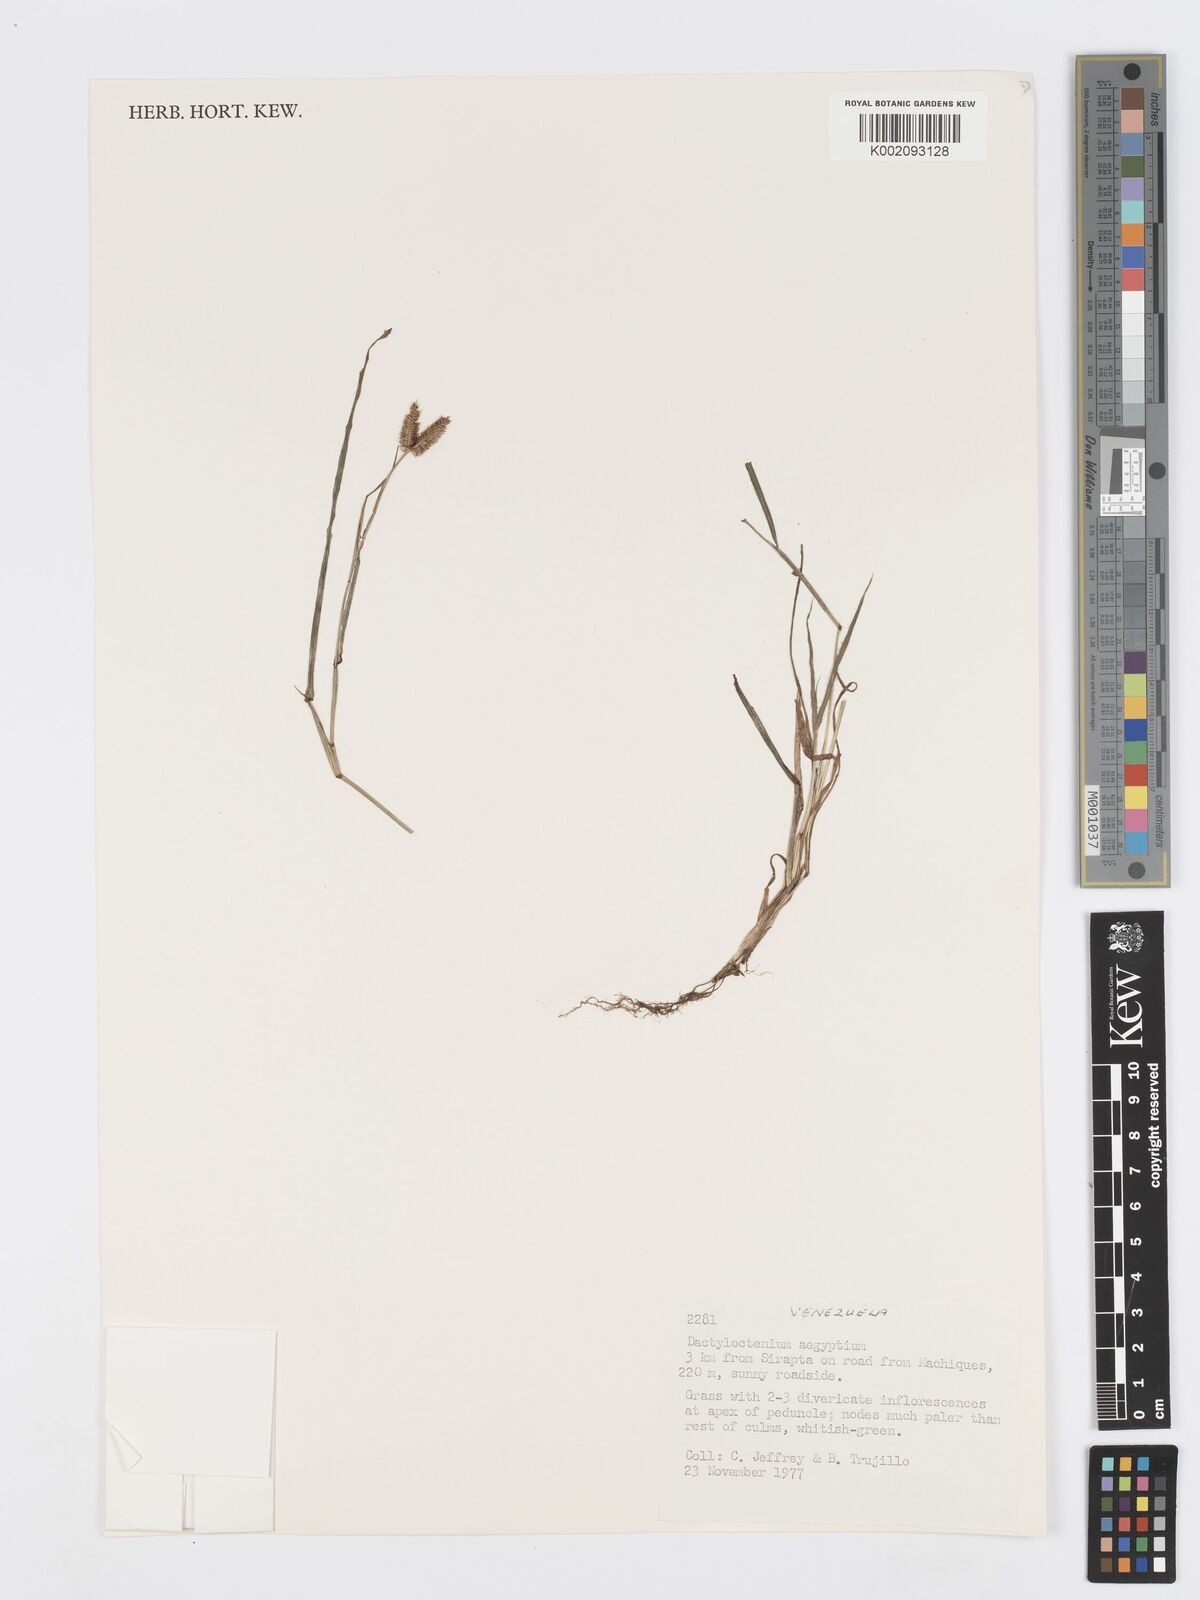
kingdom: Plantae
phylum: Tracheophyta
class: Liliopsida
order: Poales
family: Poaceae
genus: Dactyloctenium
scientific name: Dactyloctenium aegyptium
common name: Egyptian grass
